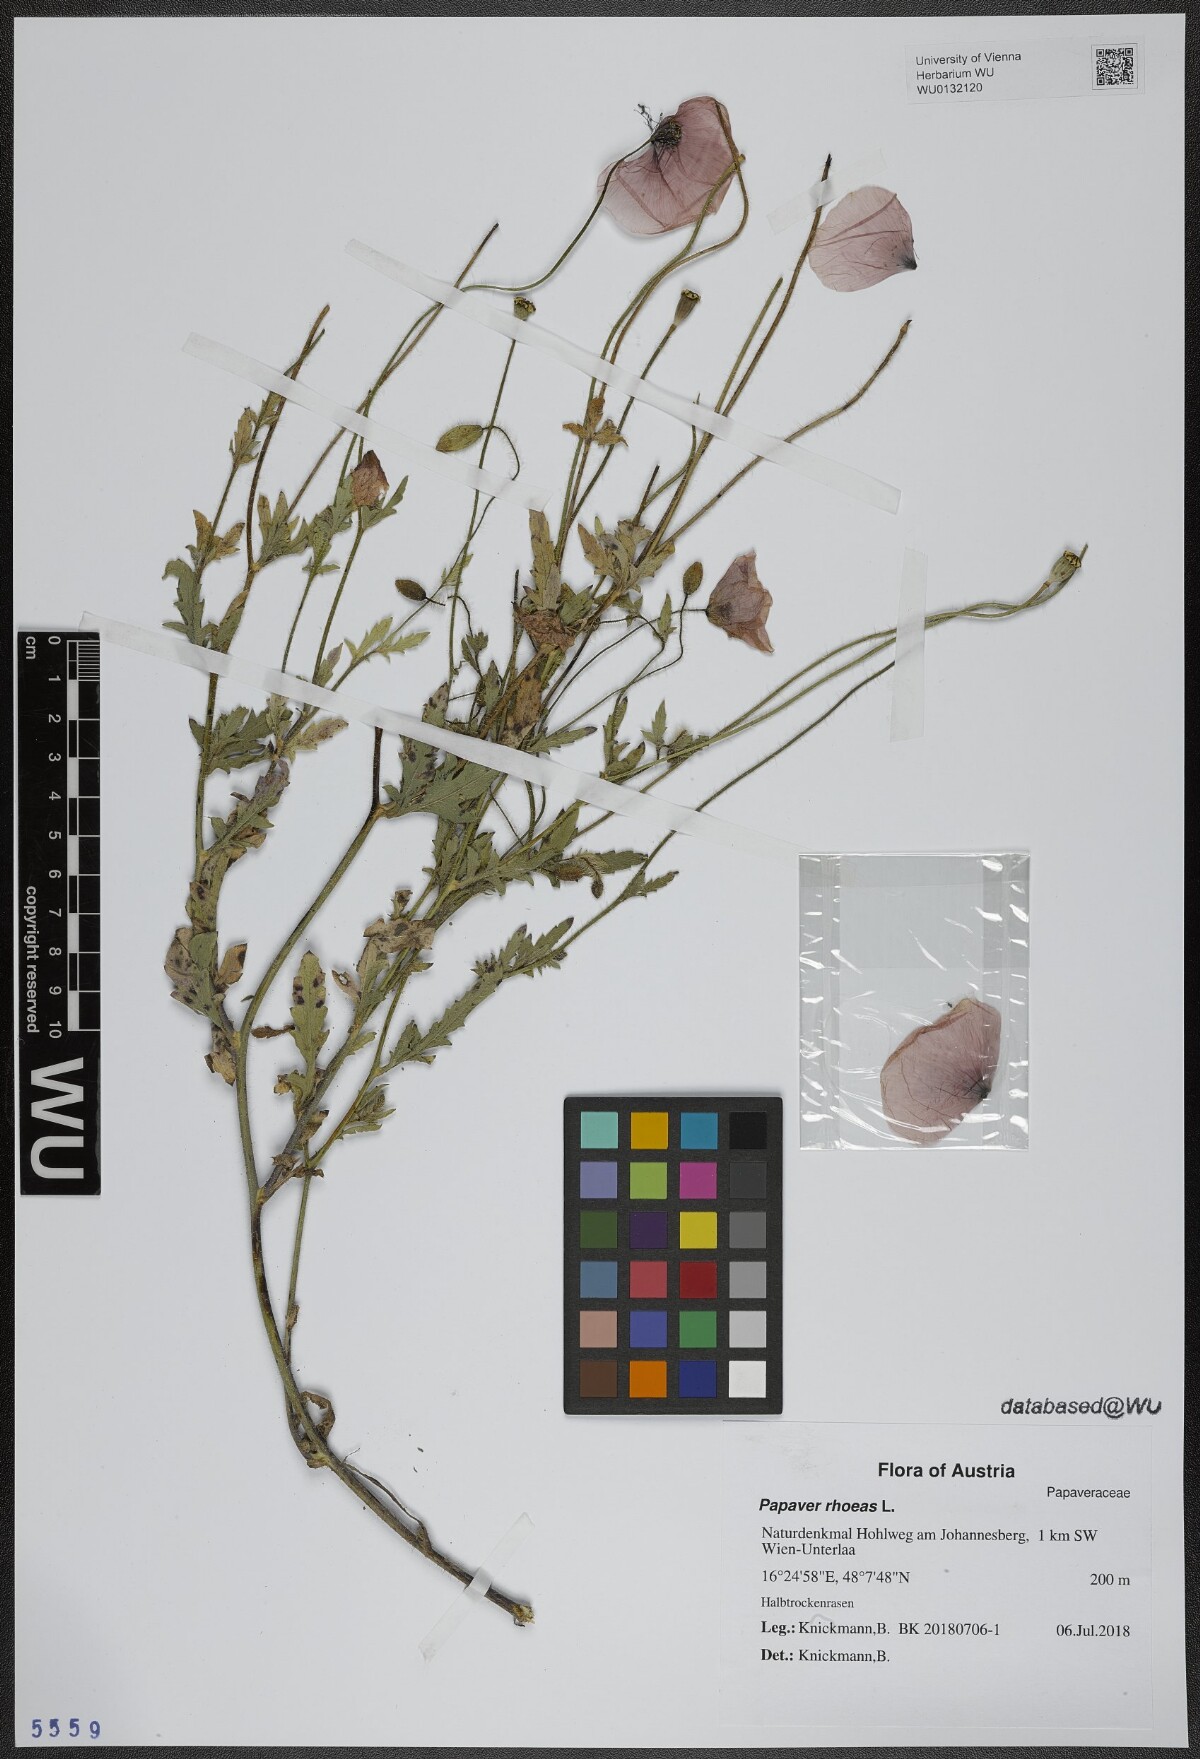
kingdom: Plantae
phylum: Tracheophyta
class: Magnoliopsida
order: Ranunculales
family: Papaveraceae
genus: Papaver
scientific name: Papaver rhoeas
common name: Corn poppy
